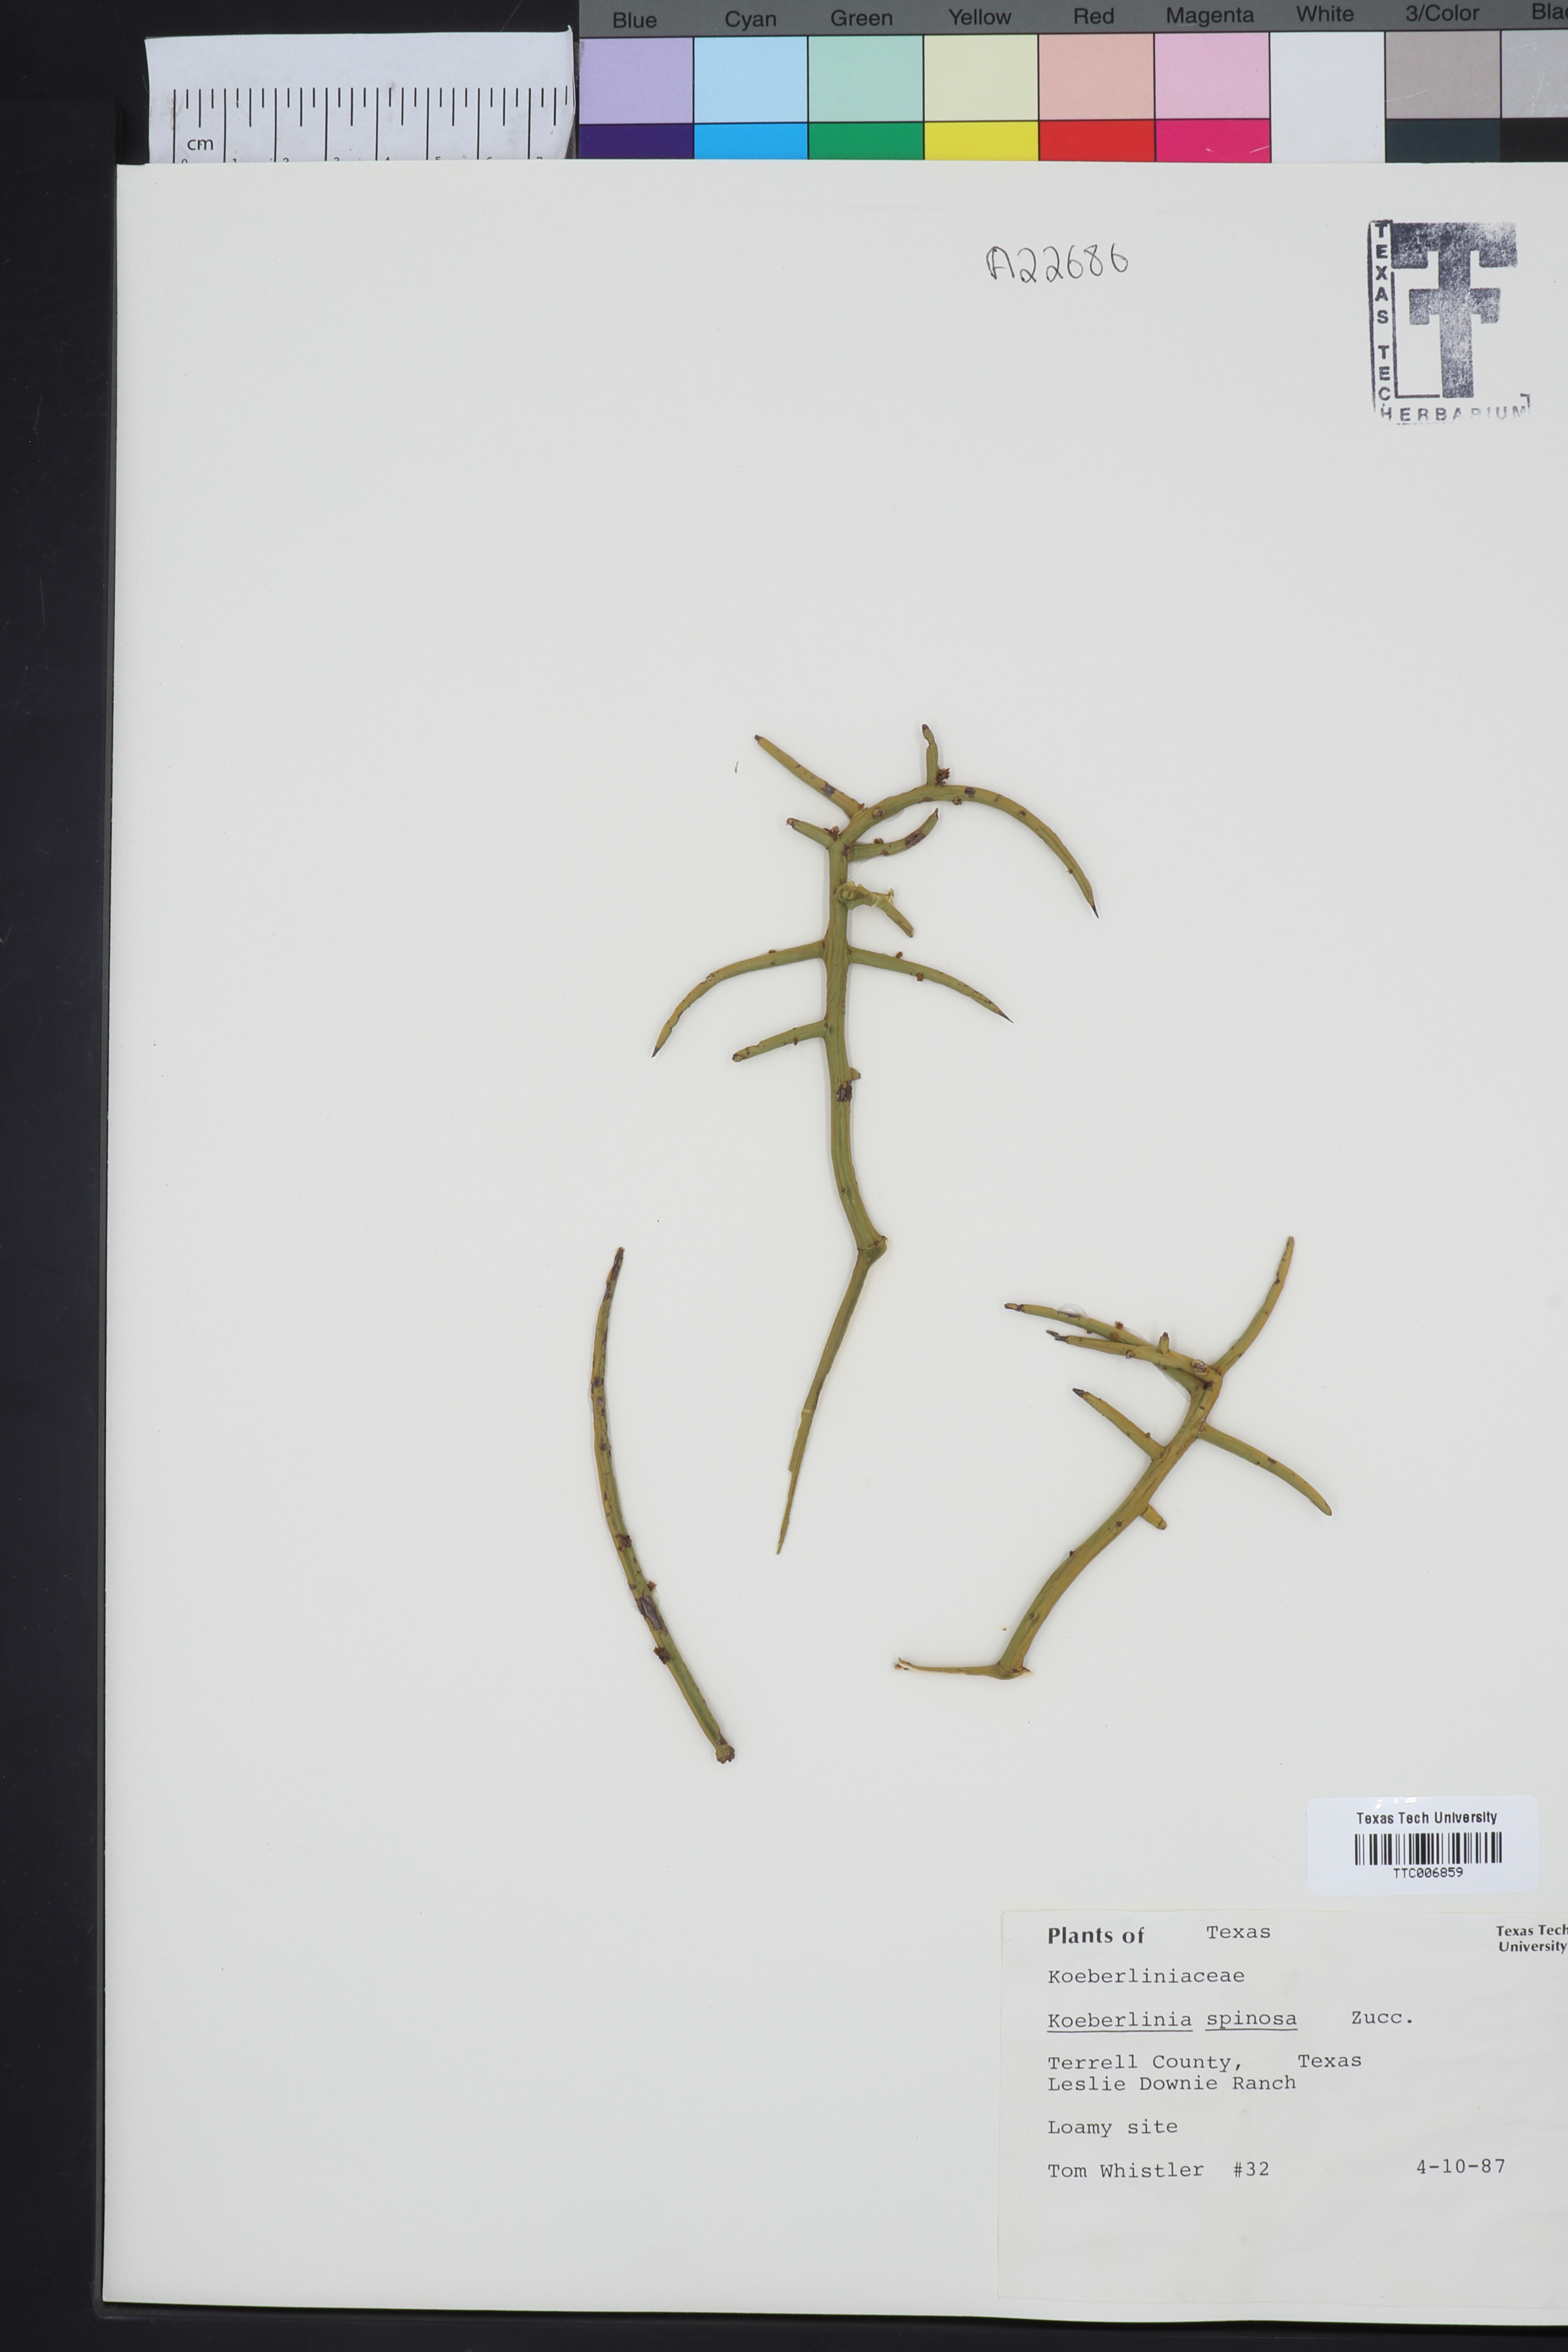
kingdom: Plantae
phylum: Tracheophyta
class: Magnoliopsida
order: Brassicales
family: Koeberliniaceae
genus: Koeberlinia
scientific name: Koeberlinia spinosa
